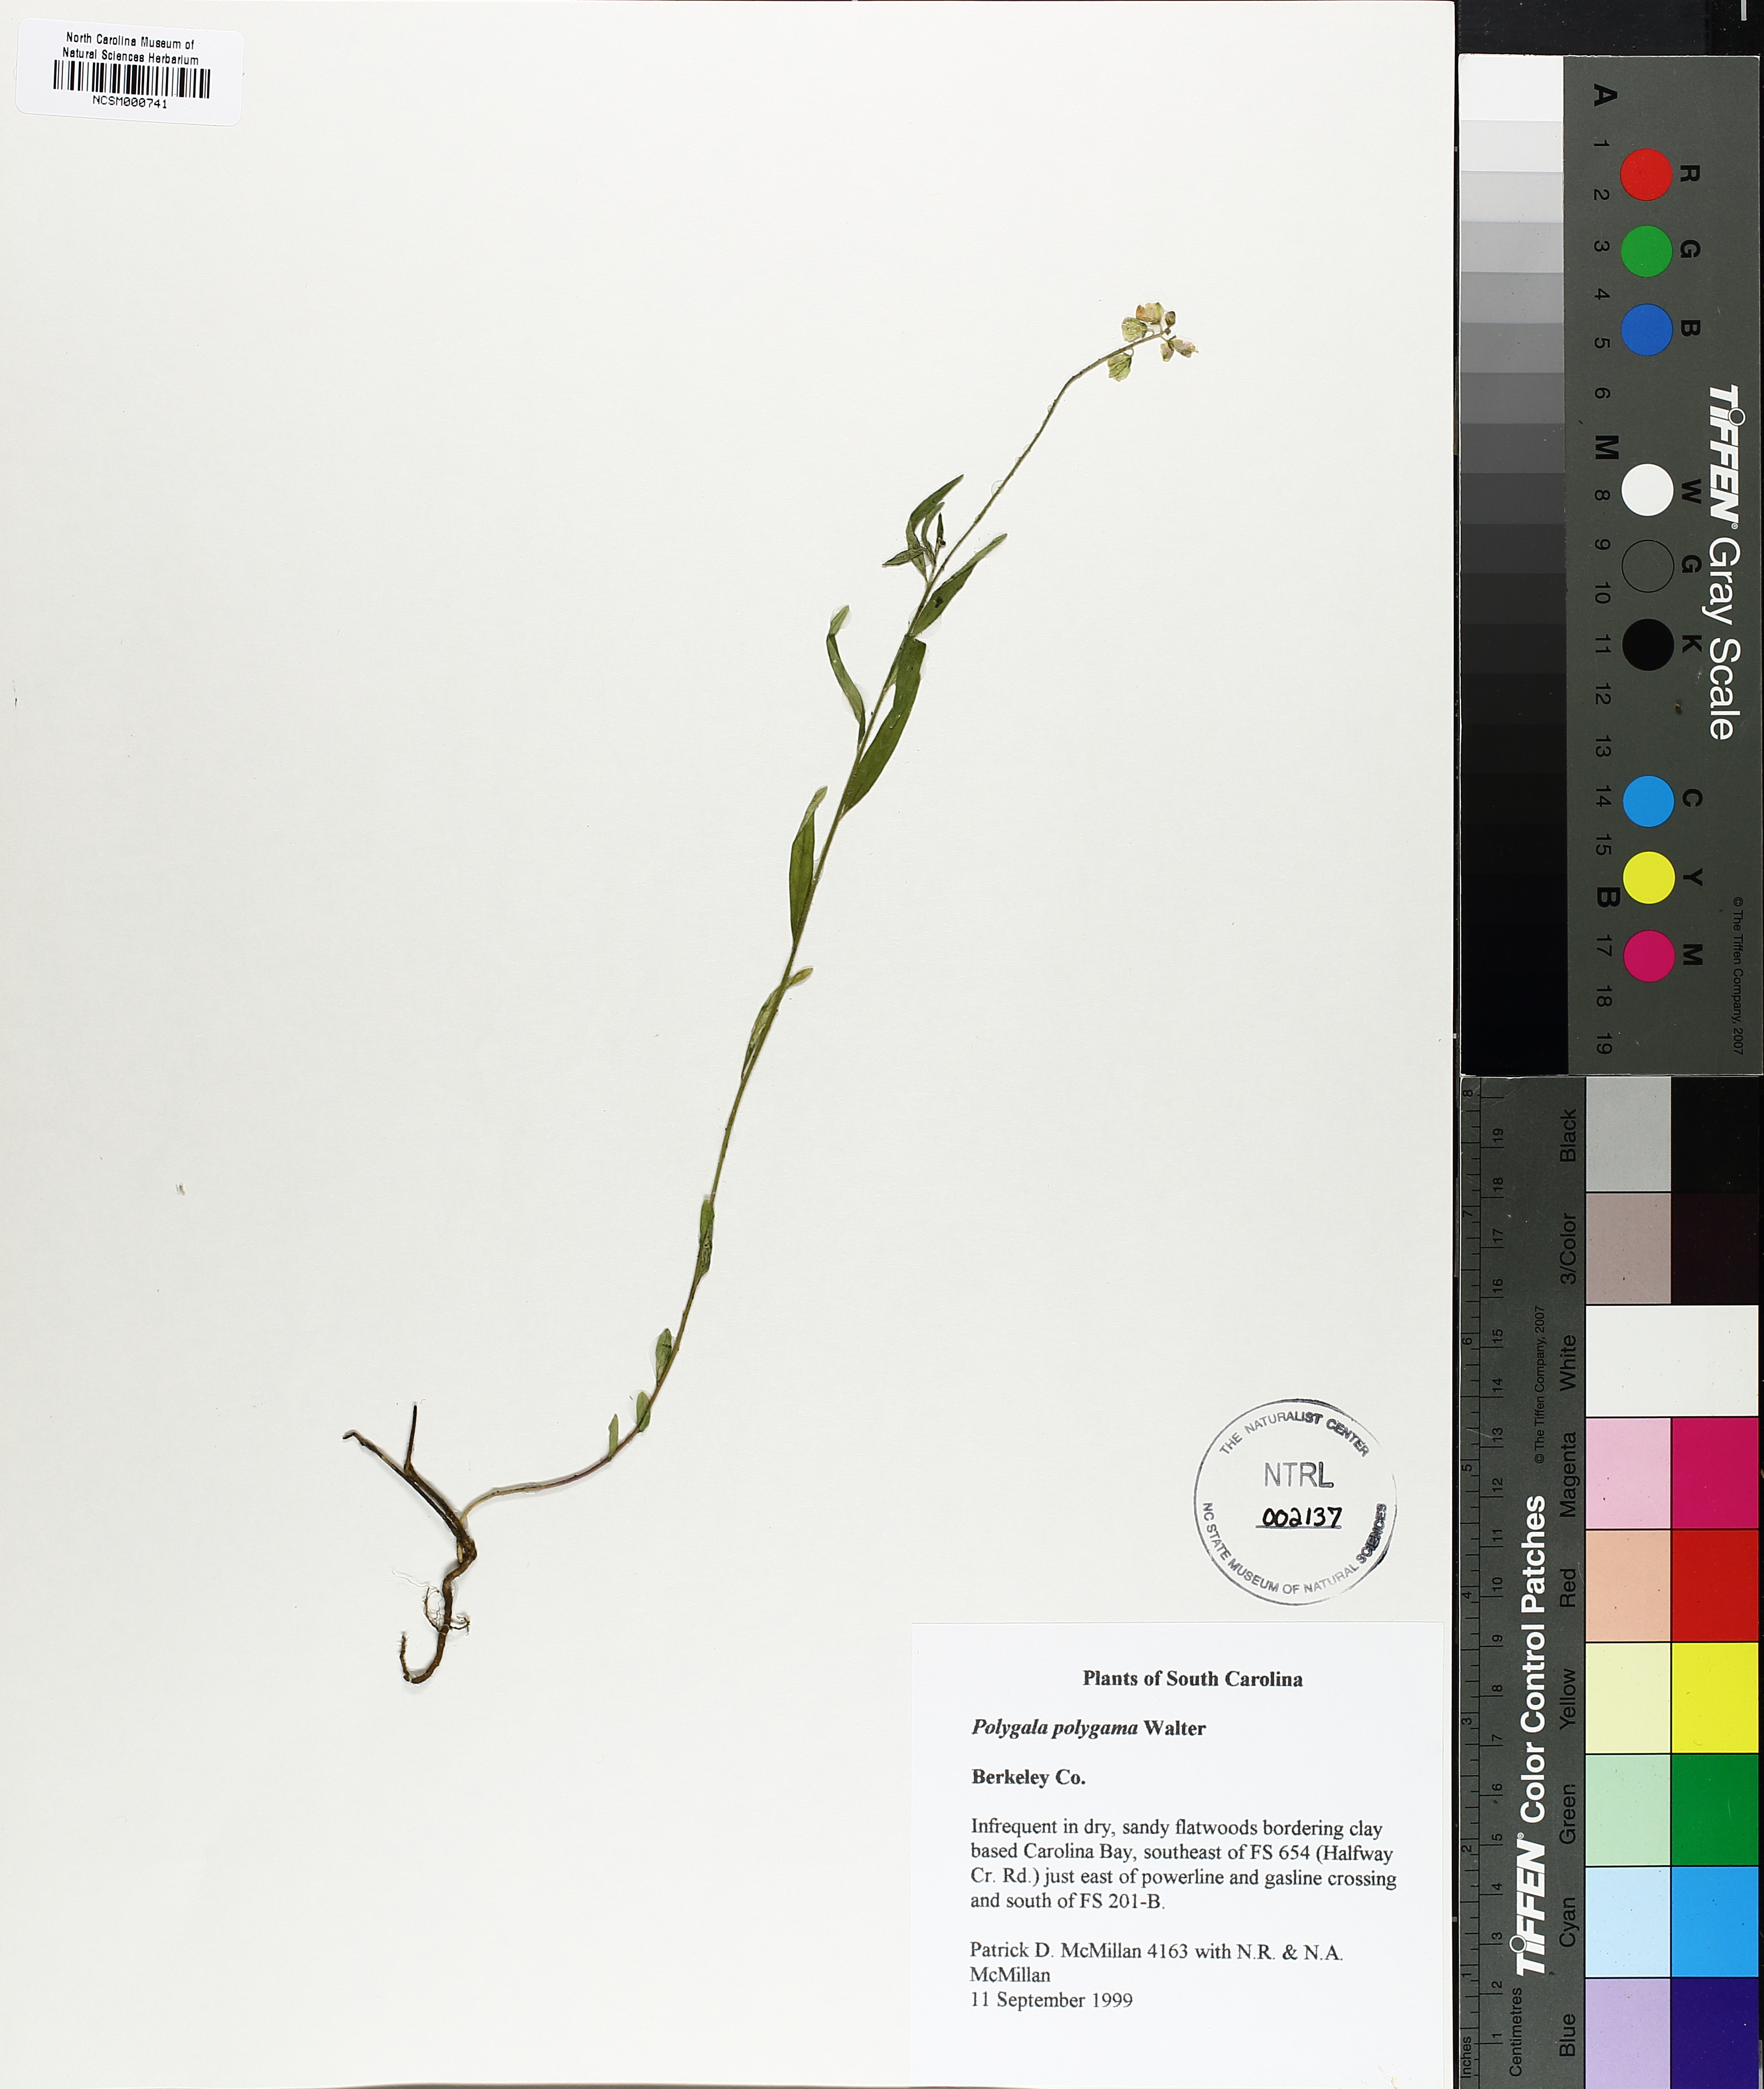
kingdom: Plantae
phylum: Tracheophyta
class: Magnoliopsida
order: Fabales
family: Polygalaceae
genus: Polygala
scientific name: Polygala polygama
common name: Bitter milkwort
